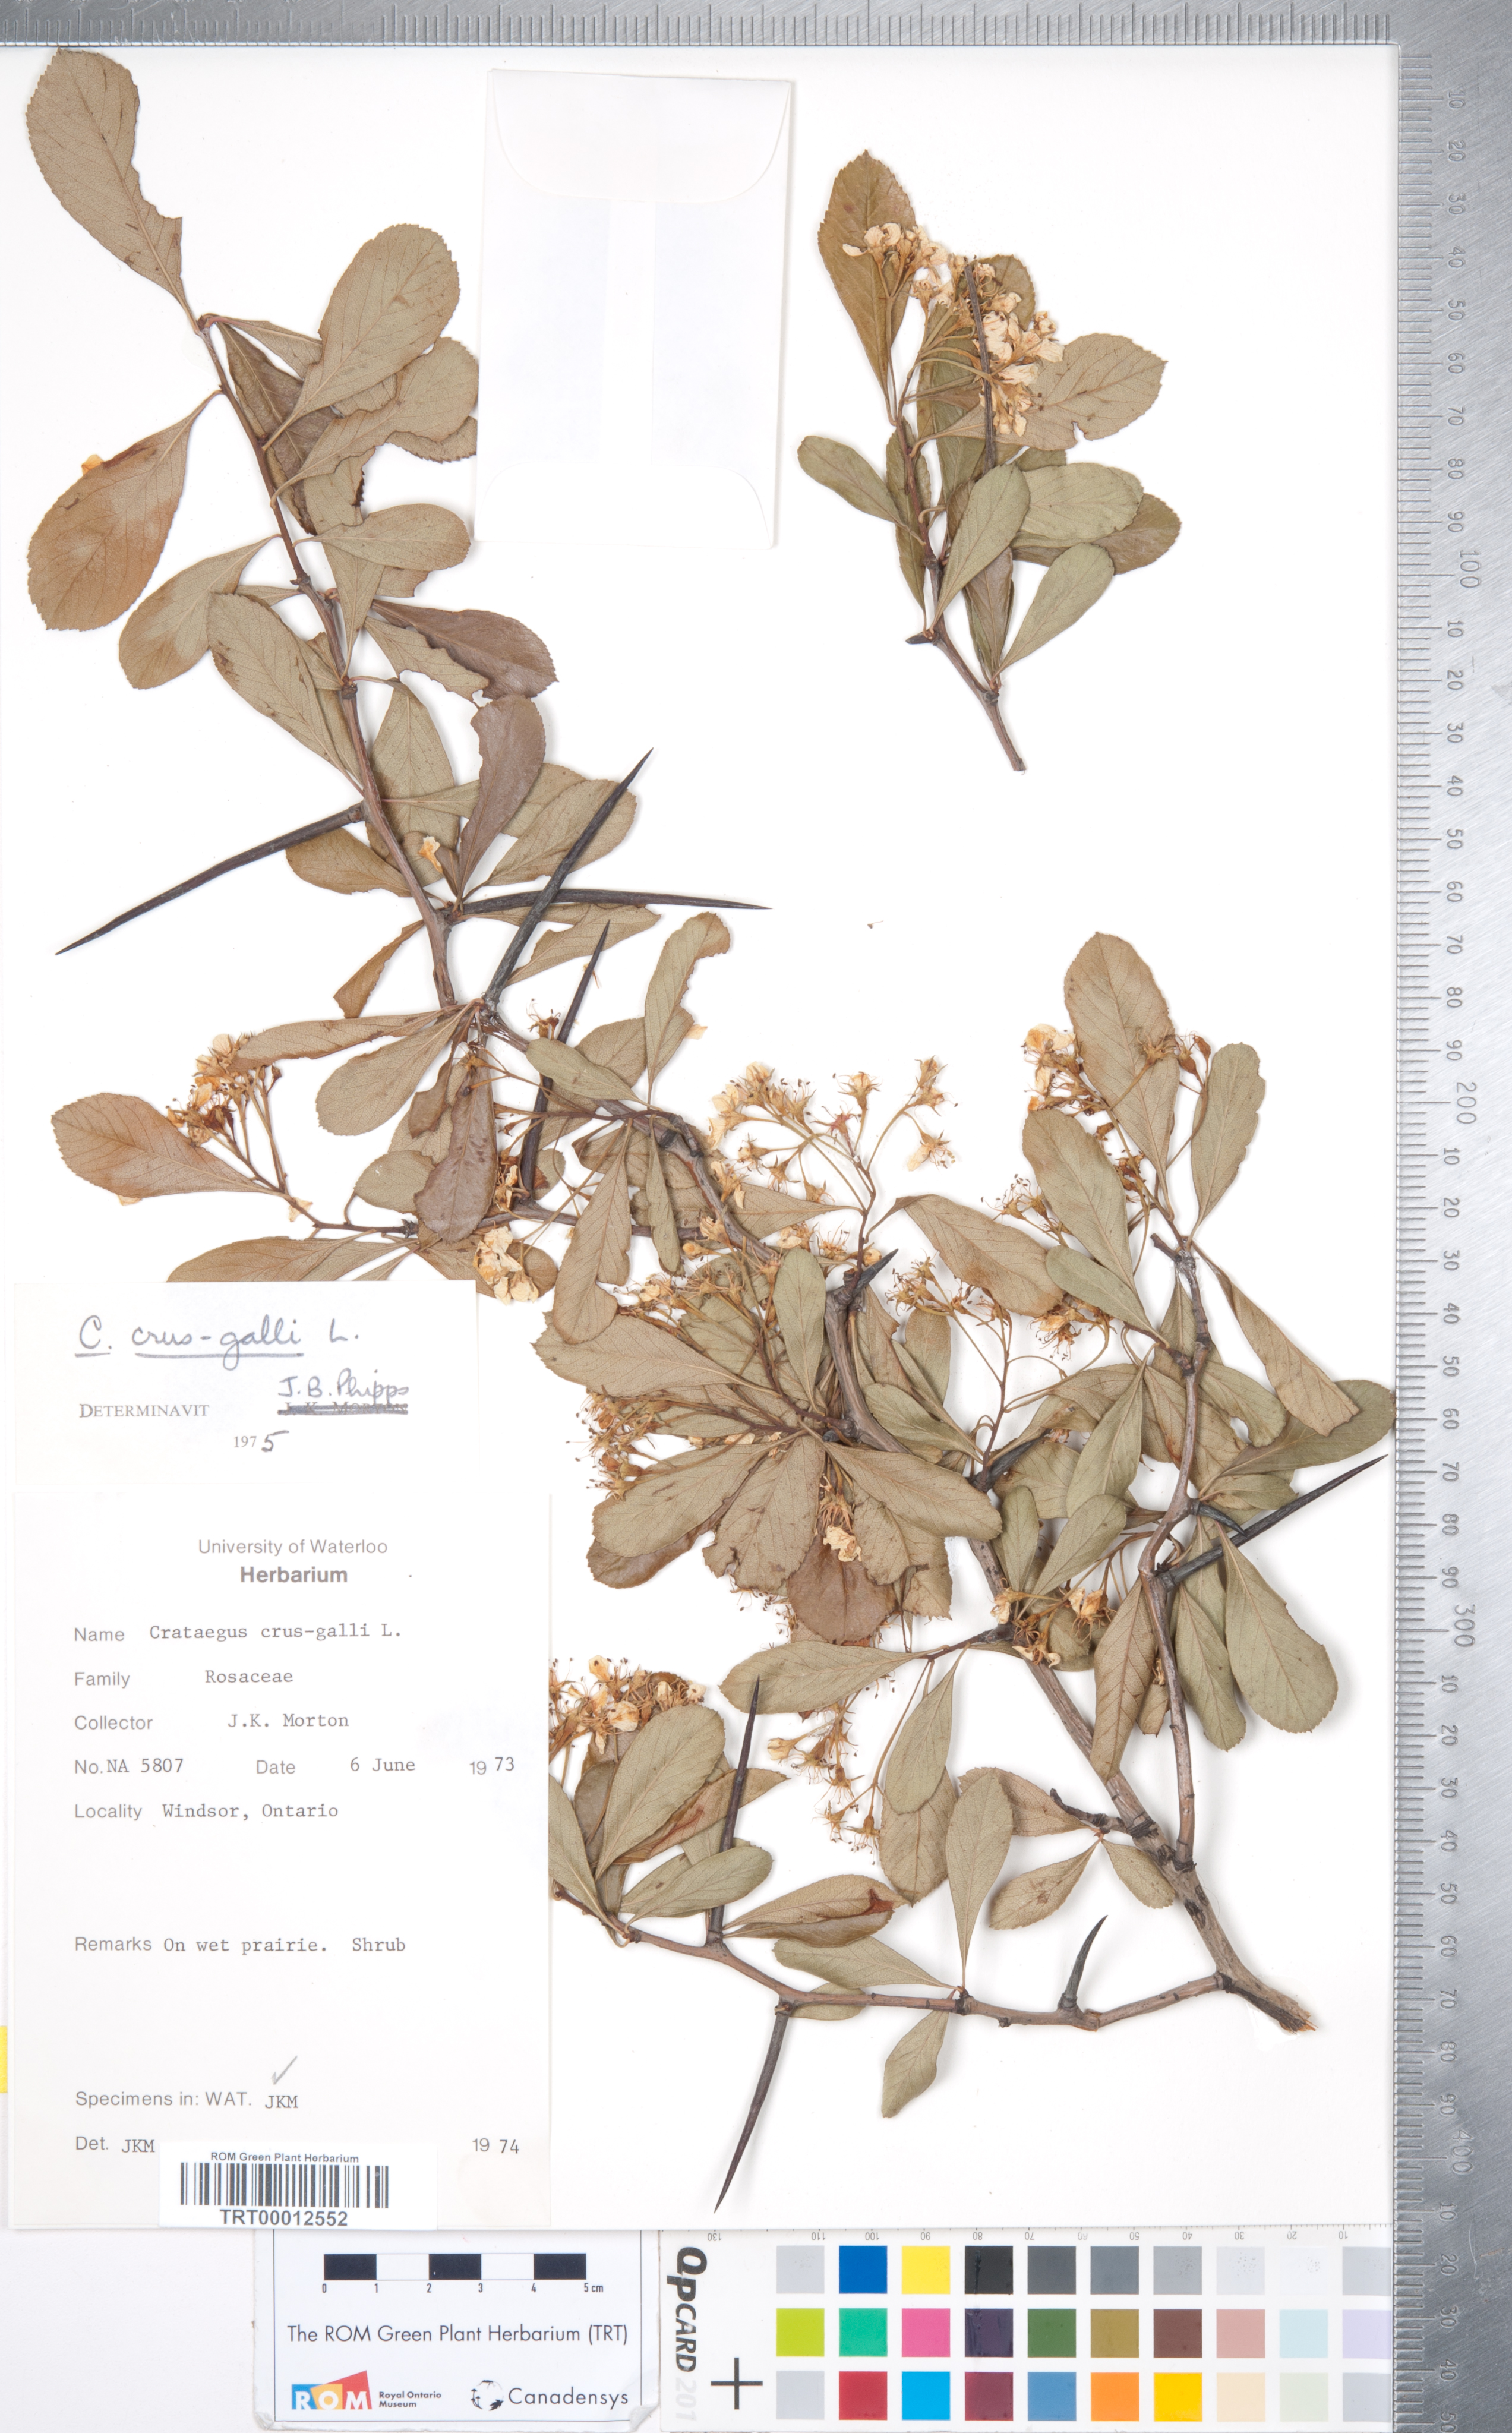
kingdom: Plantae
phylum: Tracheophyta
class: Magnoliopsida
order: Rosales
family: Rosaceae
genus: Crataegus
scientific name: Crataegus crus-galli
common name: Cockspurthorn
